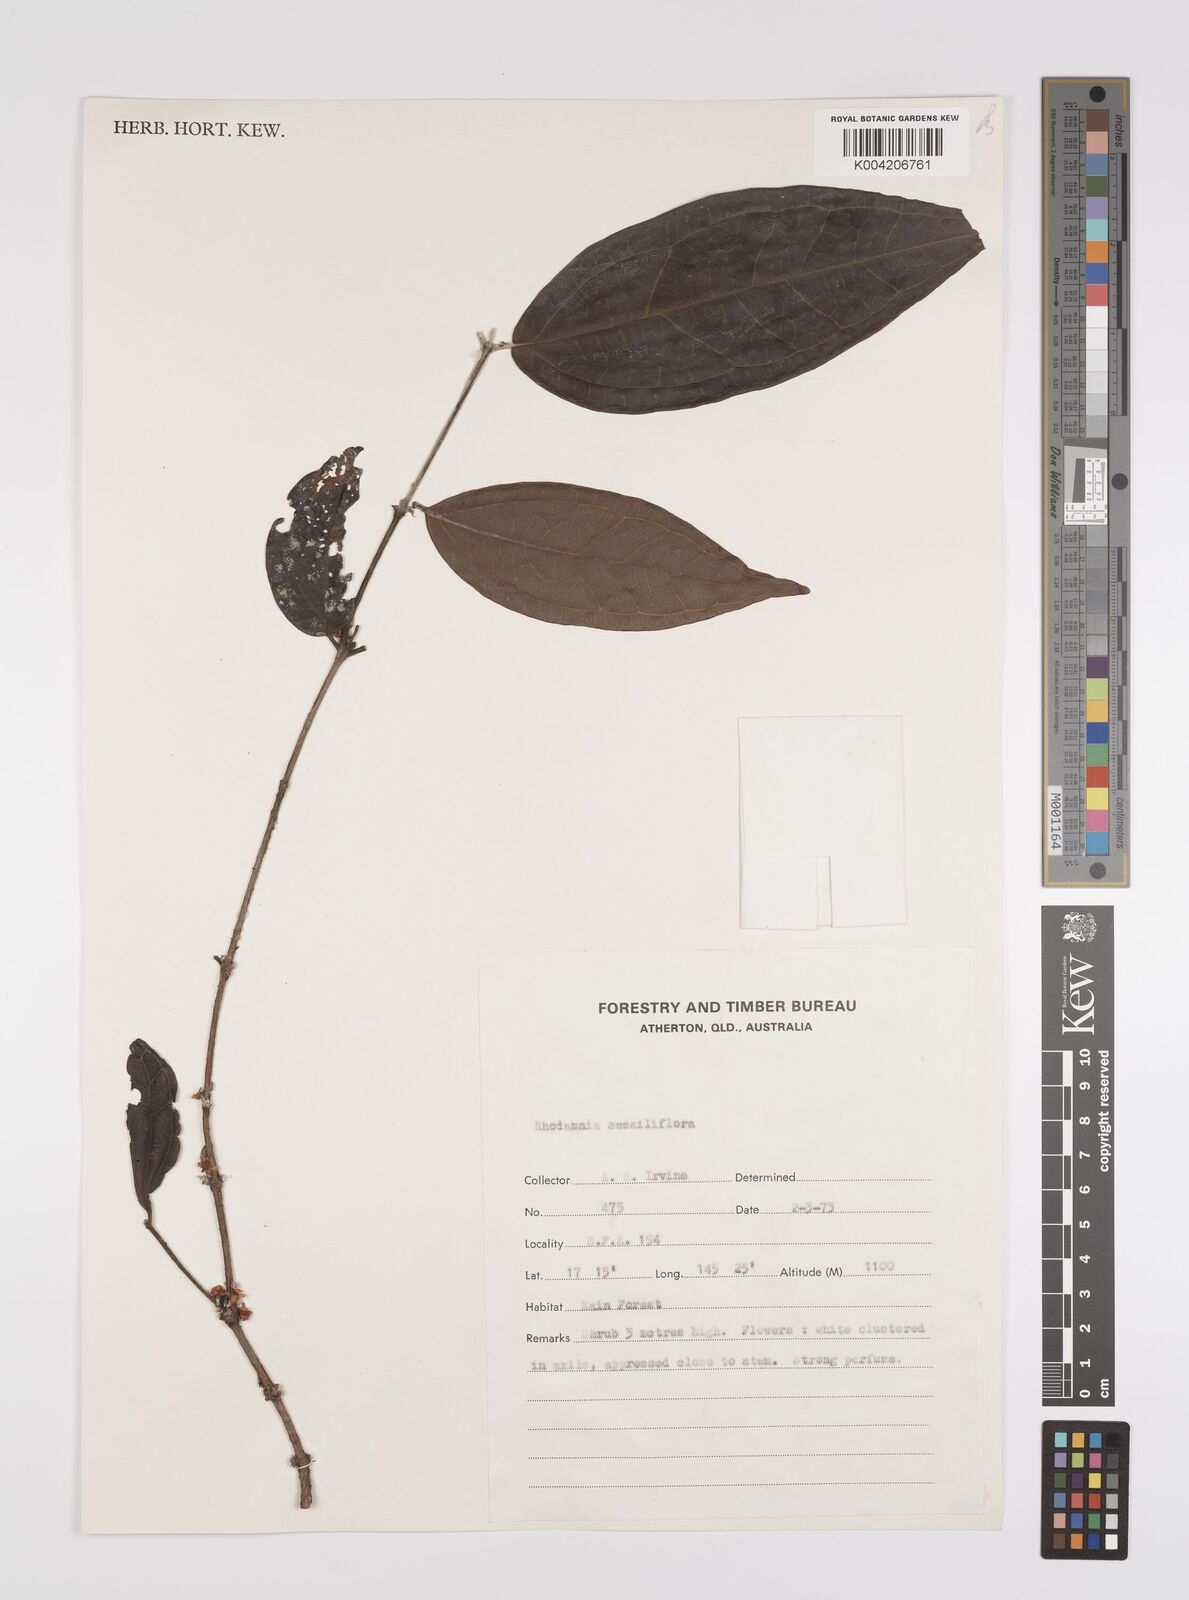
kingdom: Plantae
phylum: Tracheophyta
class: Magnoliopsida
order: Myrtales
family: Myrtaceae
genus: Rhodamnia
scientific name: Rhodamnia sessiliflora
